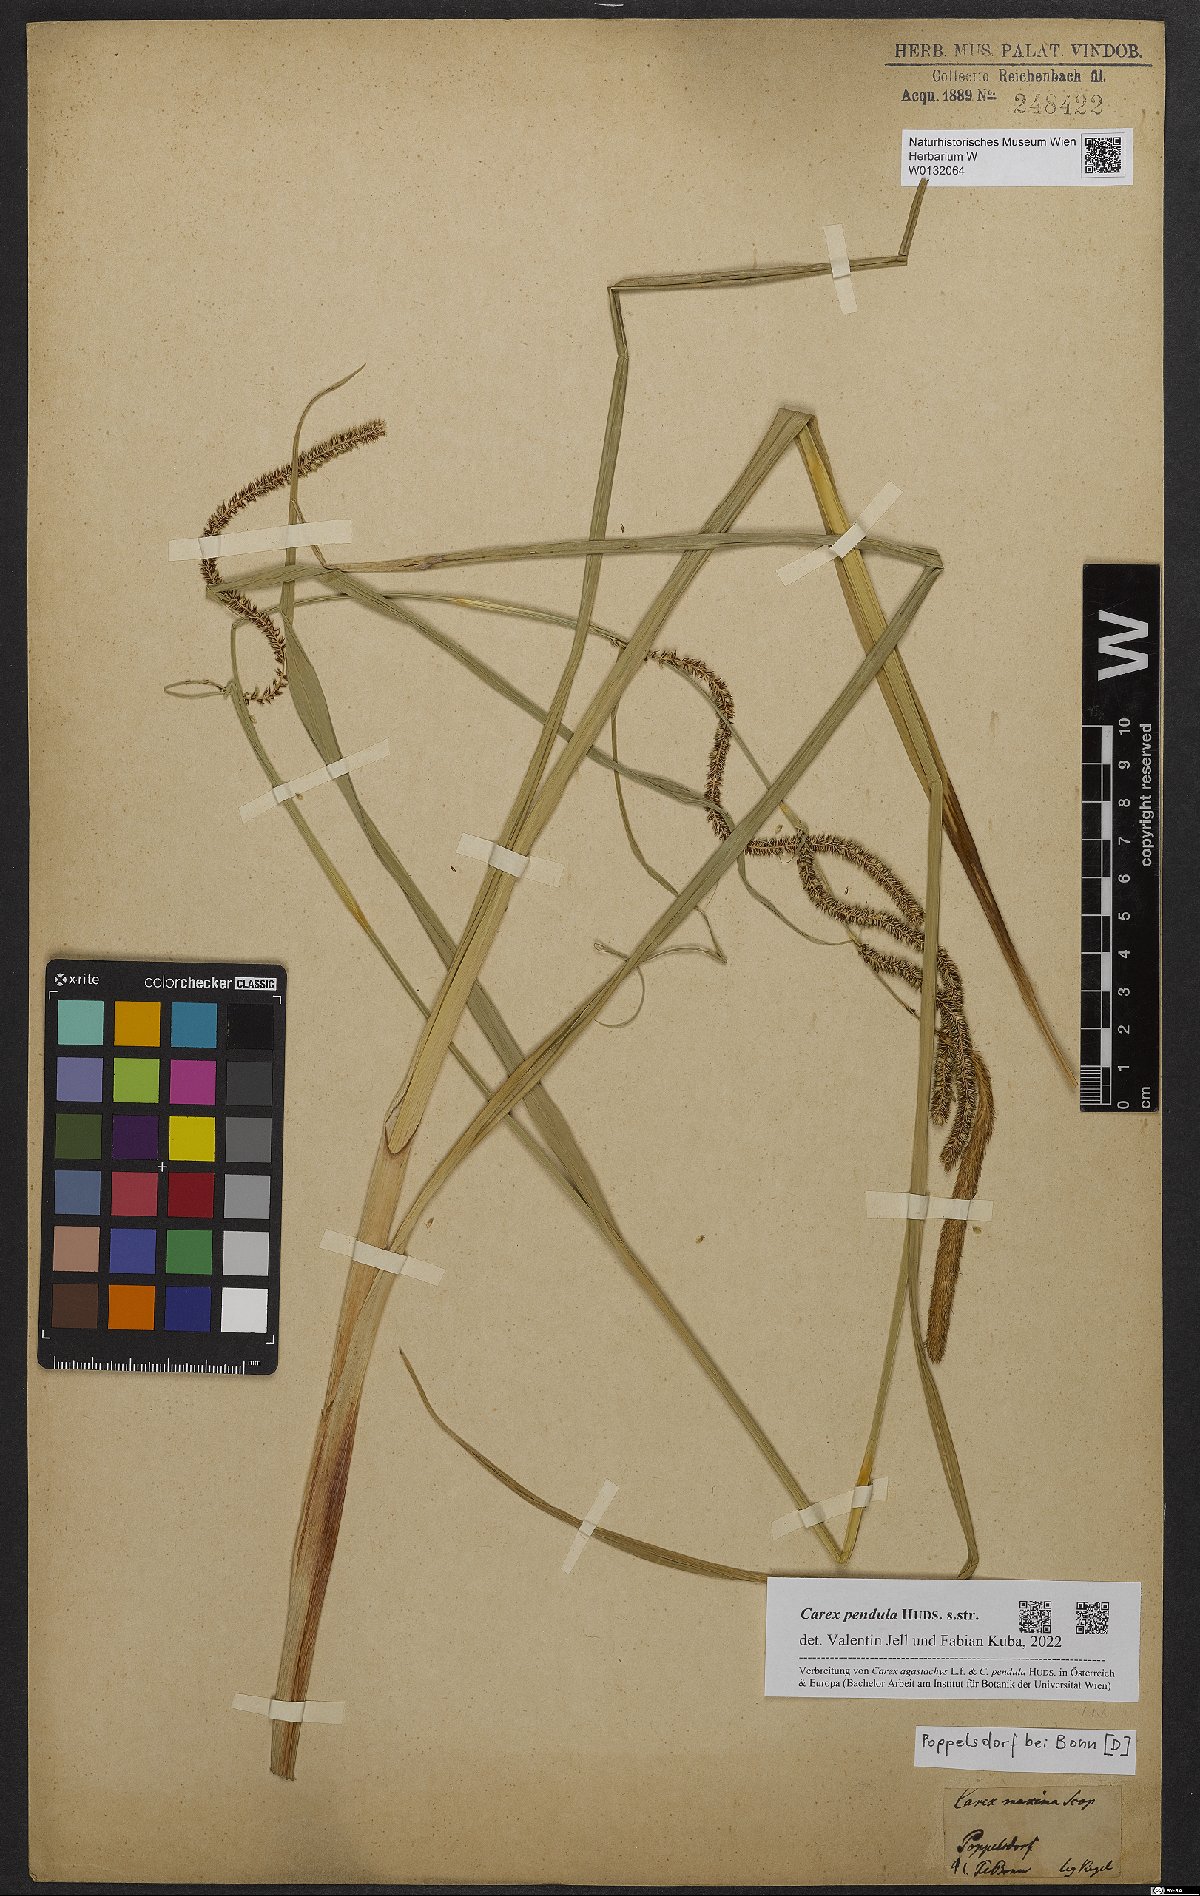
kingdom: Plantae
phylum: Tracheophyta
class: Liliopsida
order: Poales
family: Cyperaceae
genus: Carex
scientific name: Carex pendula
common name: Pendulous sedge
